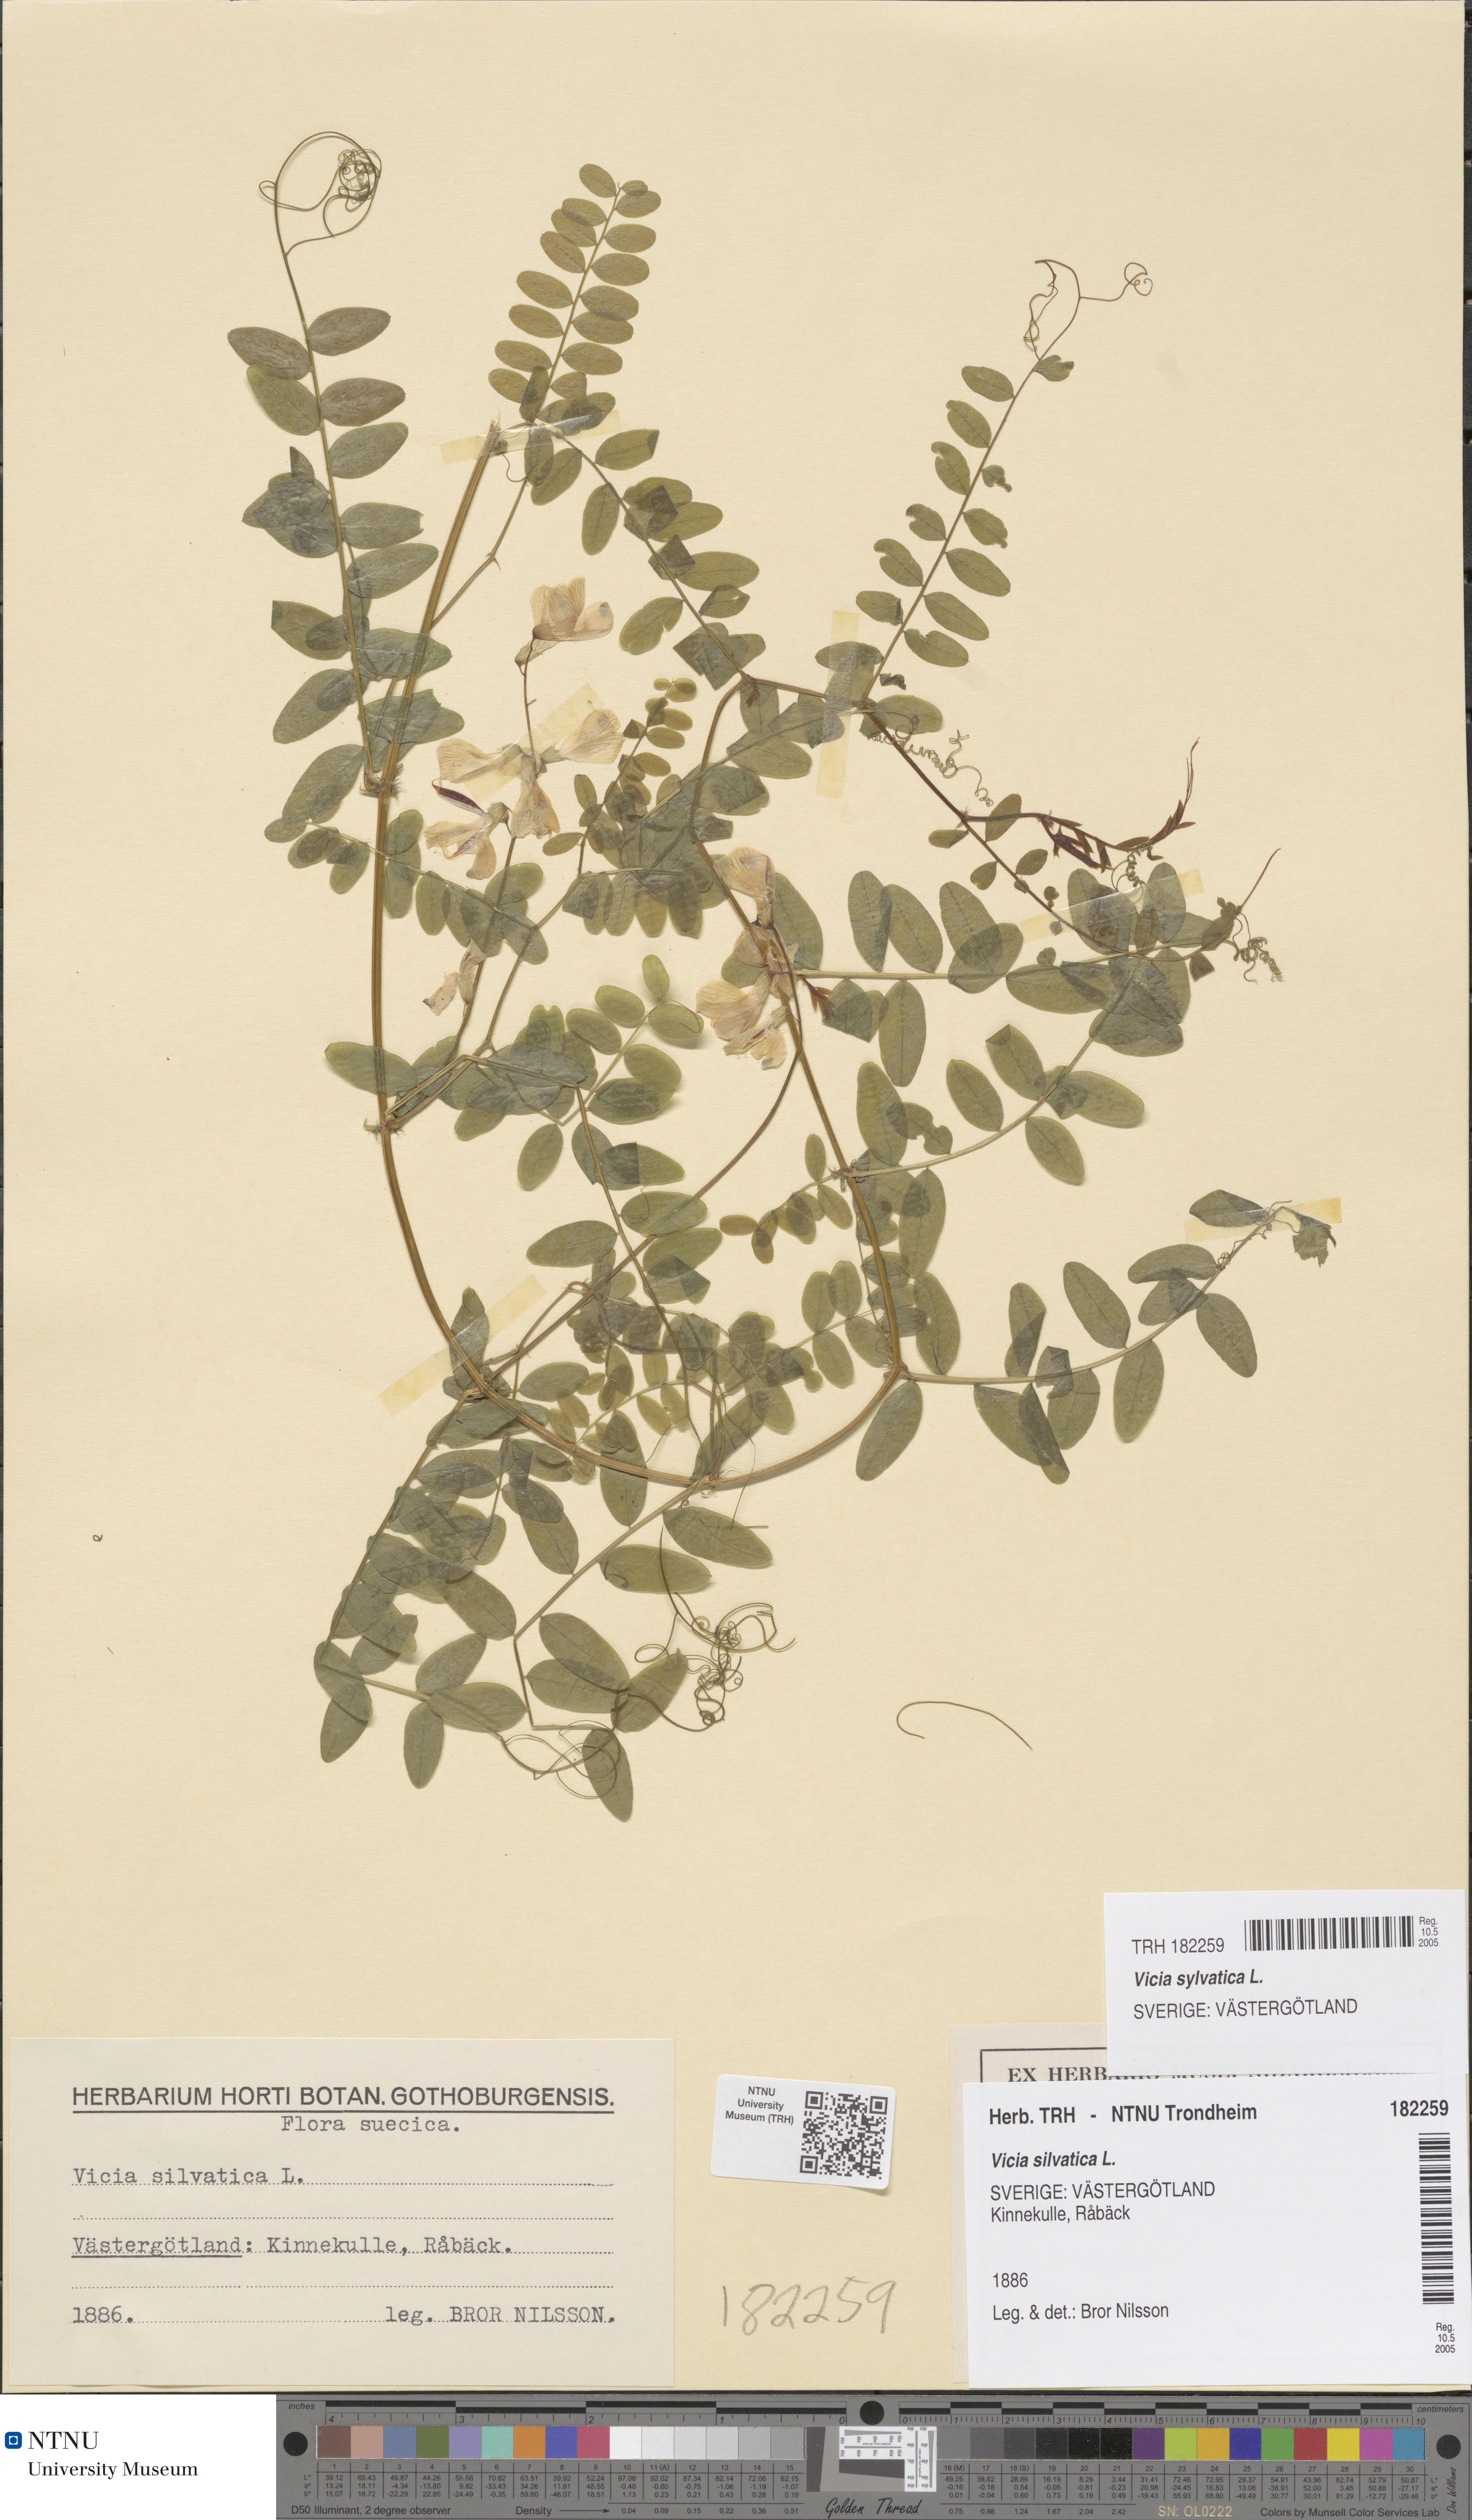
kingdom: Plantae
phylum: Tracheophyta
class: Magnoliopsida
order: Fabales
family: Fabaceae
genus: Vicia
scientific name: Vicia sylvatica
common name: Wood vetch
